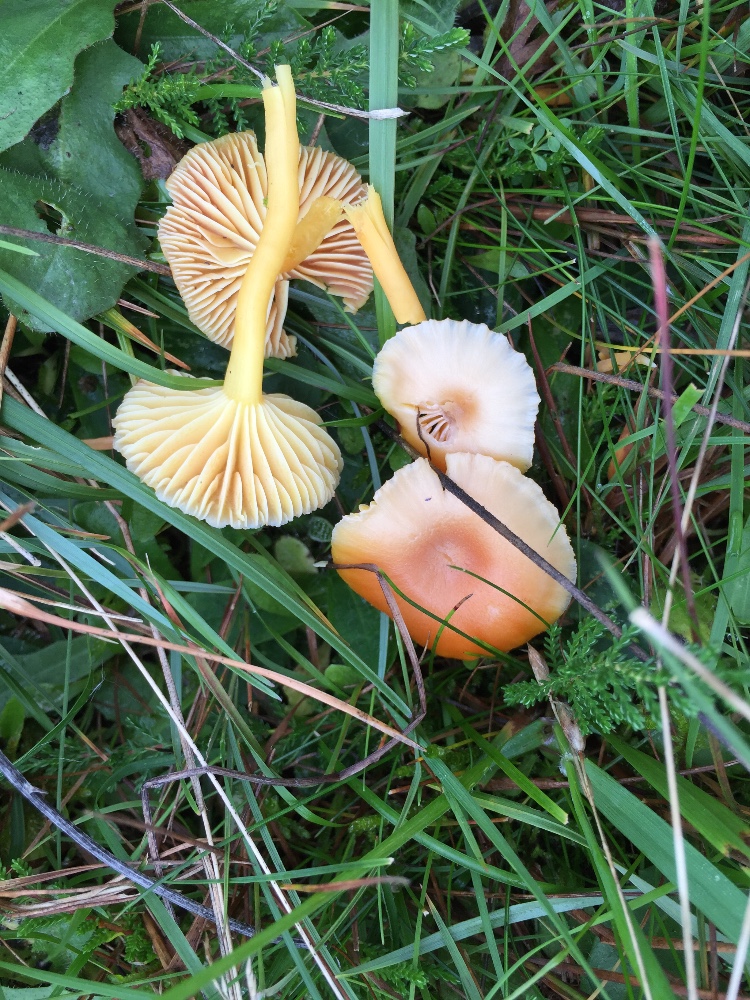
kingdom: Fungi
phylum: Basidiomycota
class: Agaricomycetes
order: Agaricales
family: Hygrophoraceae
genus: Hygrocybe
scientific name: Hygrocybe reidii
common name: honning-vokshat
